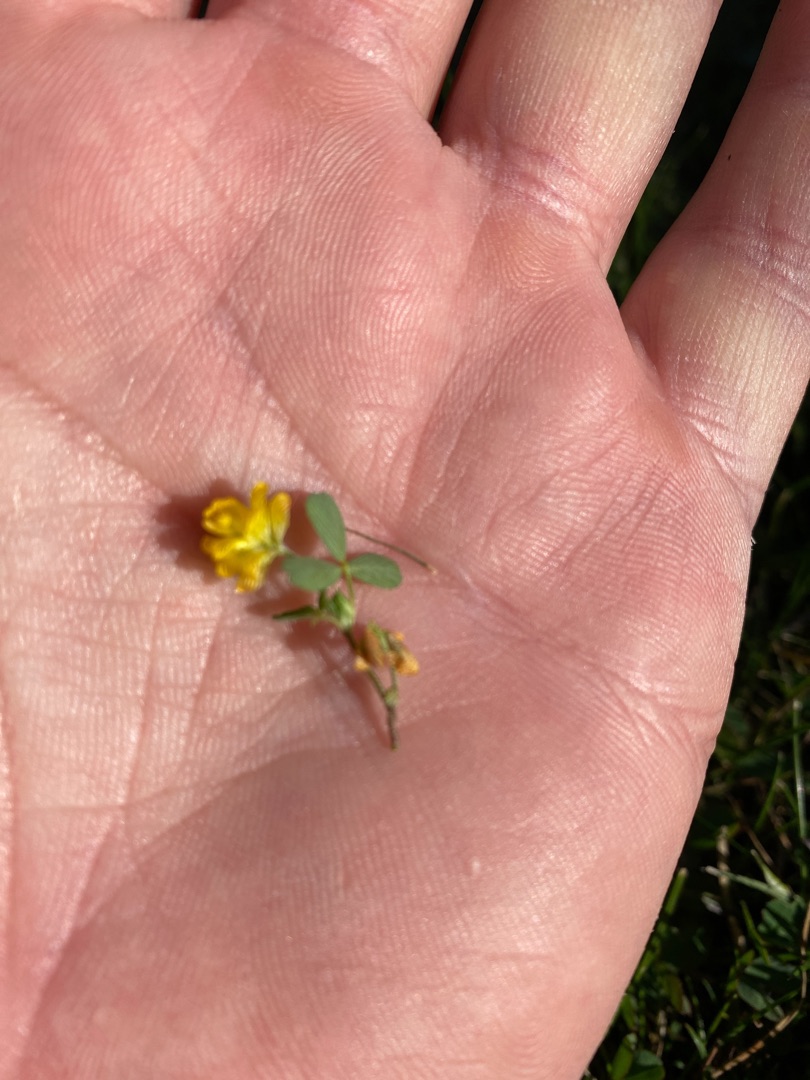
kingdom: Plantae
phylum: Tracheophyta
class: Magnoliopsida
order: Fabales
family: Fabaceae
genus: Trifolium
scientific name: Trifolium campestre
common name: Gul kløver
